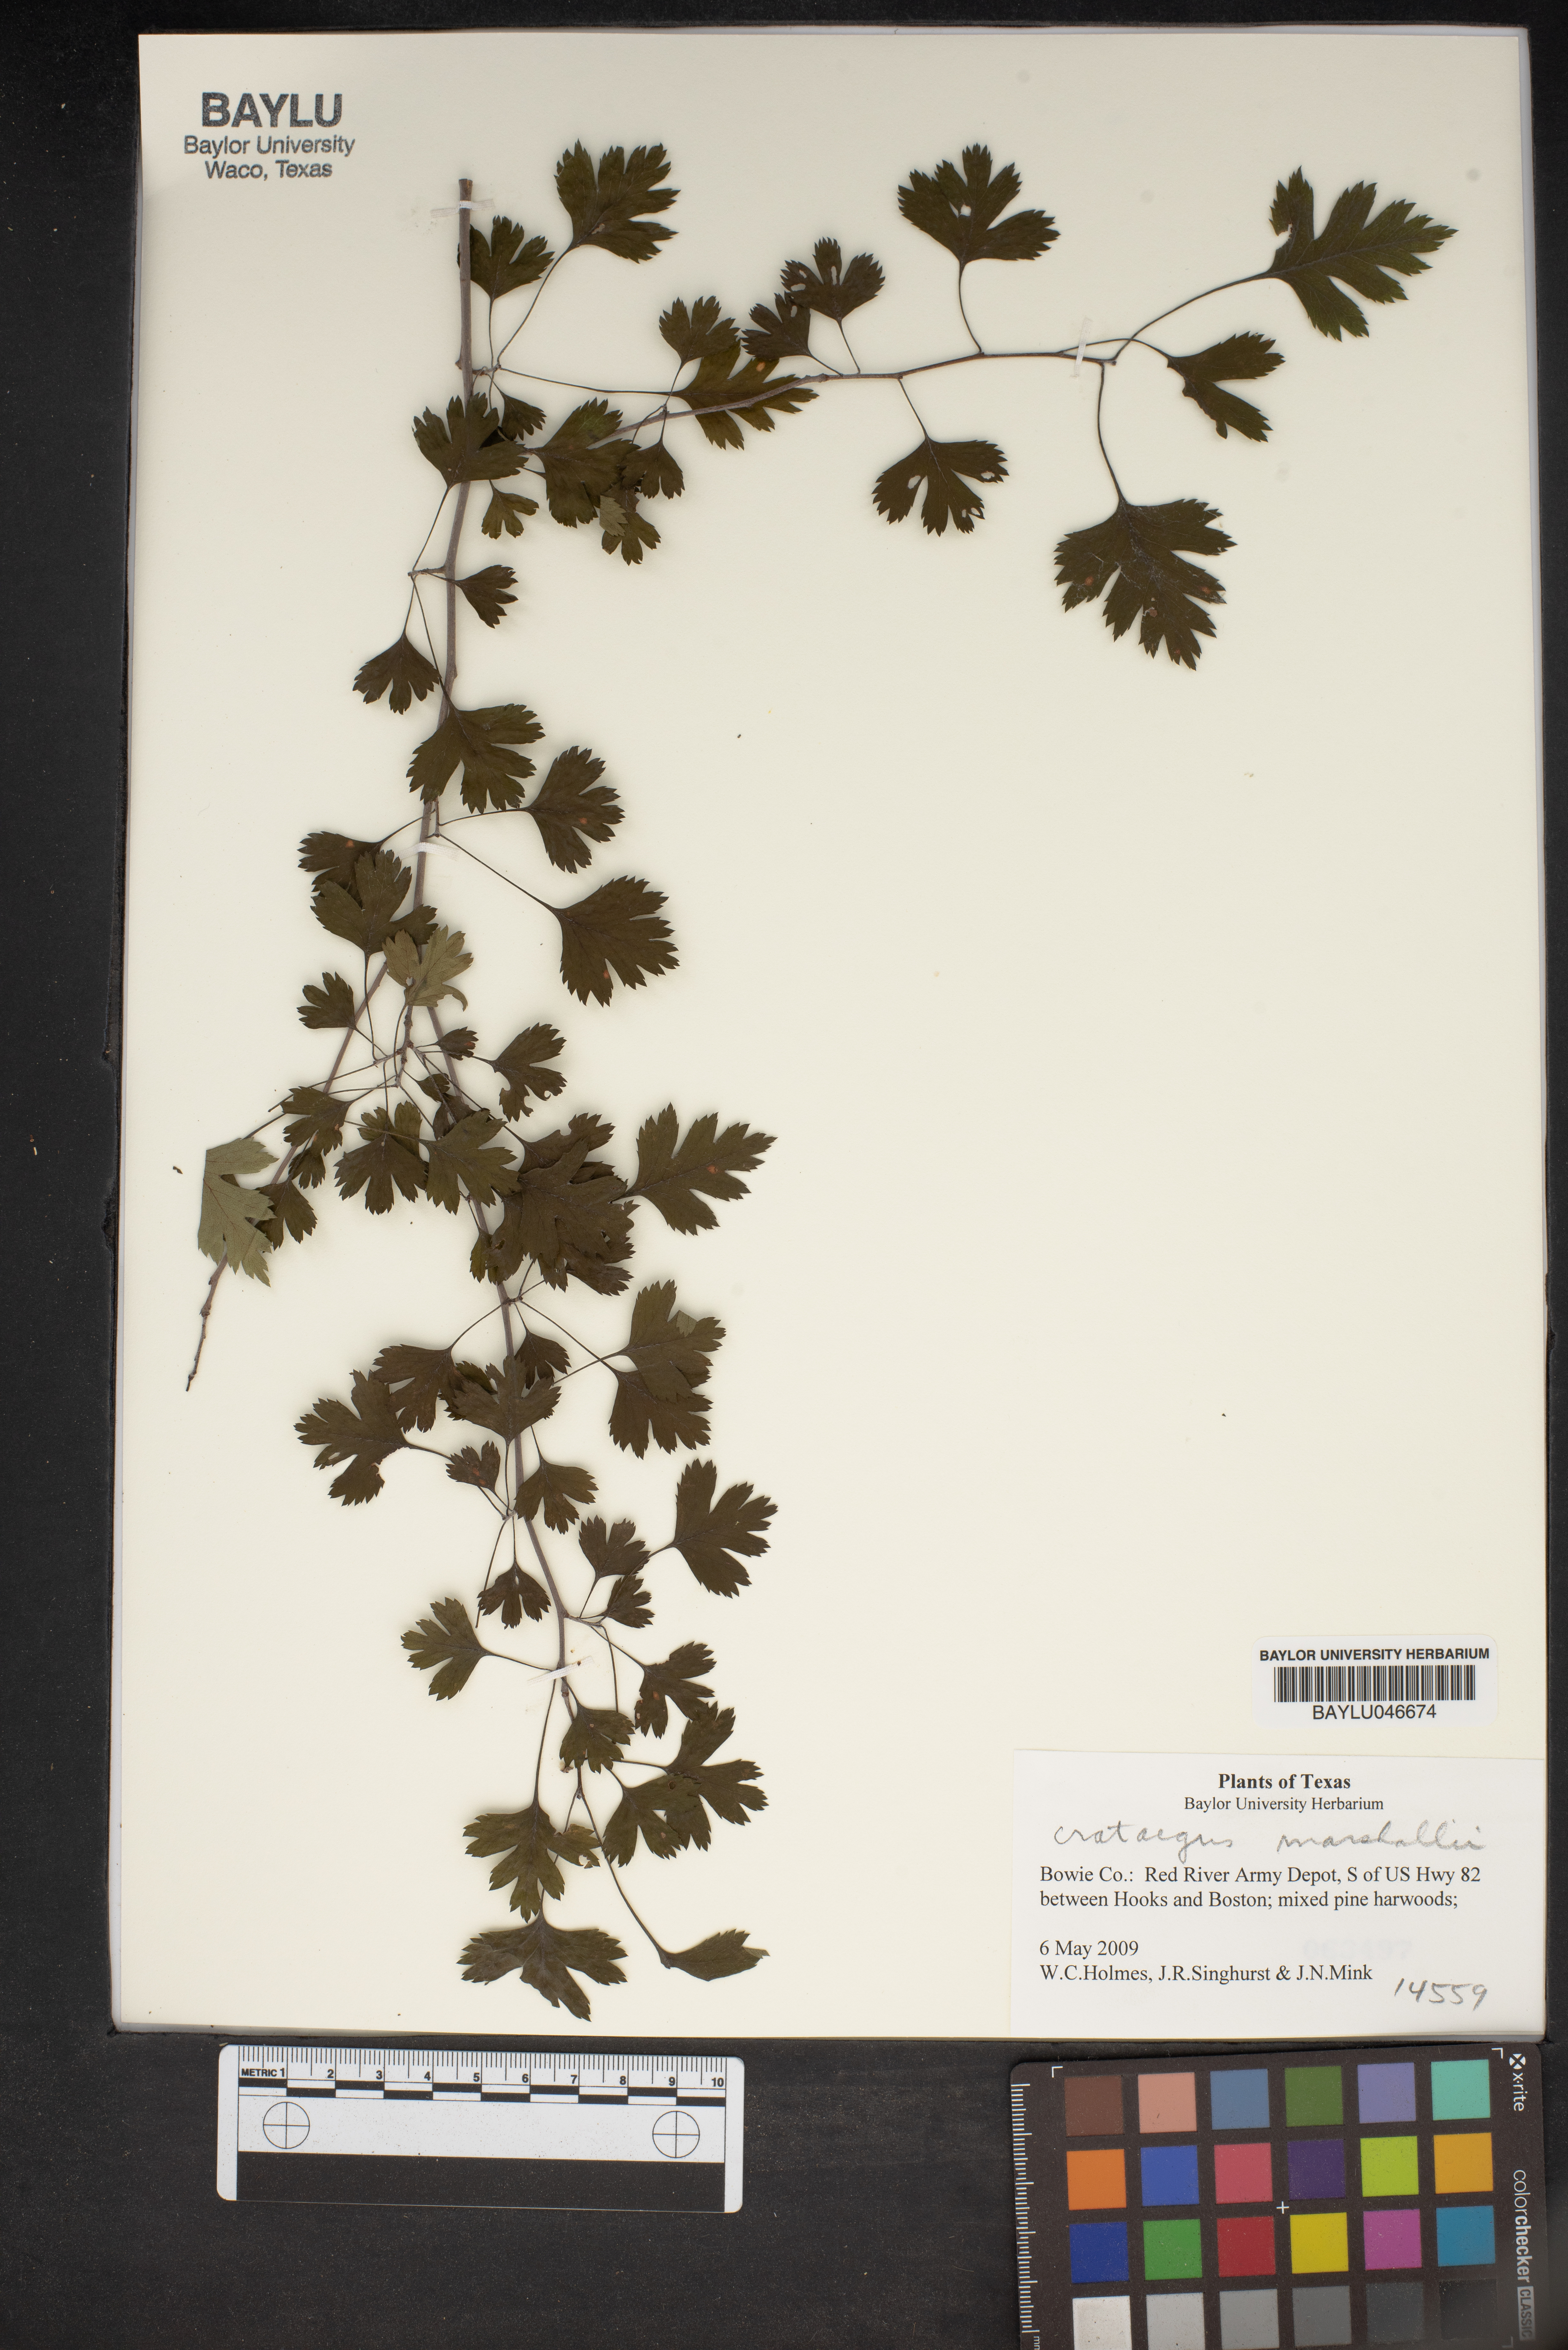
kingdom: Plantae
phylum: Tracheophyta
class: Magnoliopsida
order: Rosales
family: Rosaceae
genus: Crataegus
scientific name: Crataegus marshallii
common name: Parsley-hawthorn
